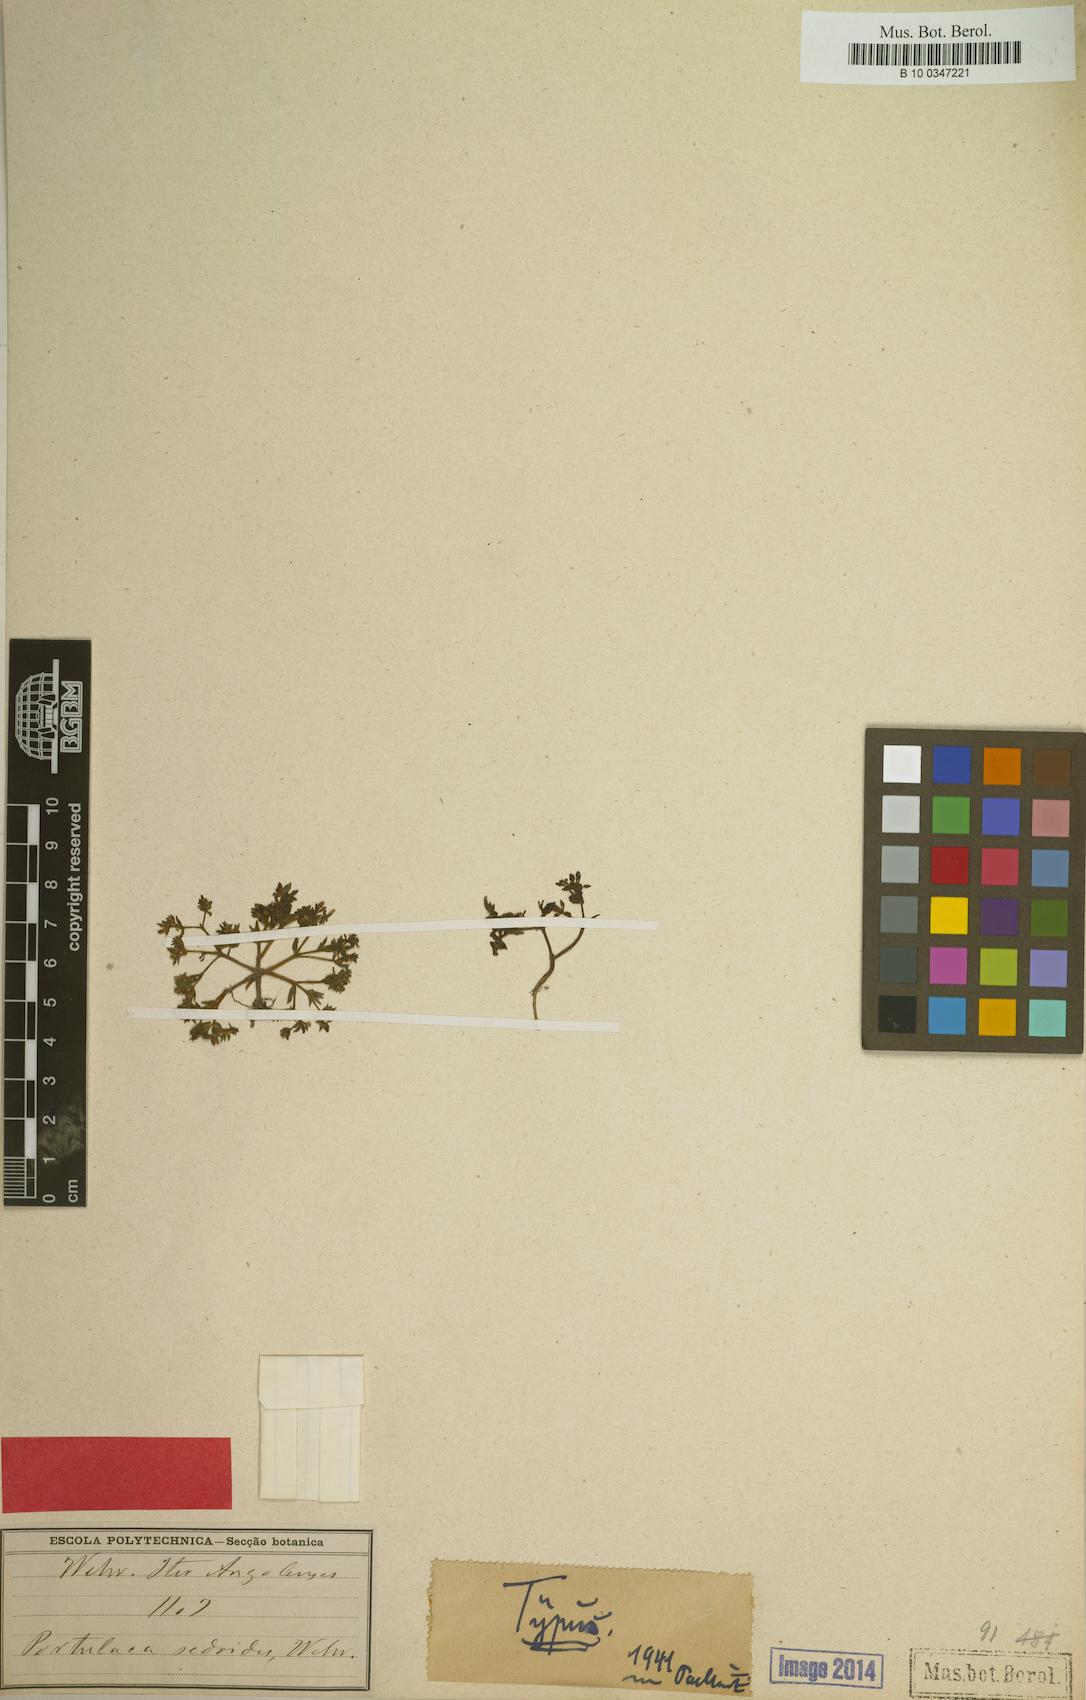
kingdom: Plantae
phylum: Tracheophyta
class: Magnoliopsida
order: Caryophyllales
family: Portulacaceae
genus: Portulaca
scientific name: Portulaca sedoides
